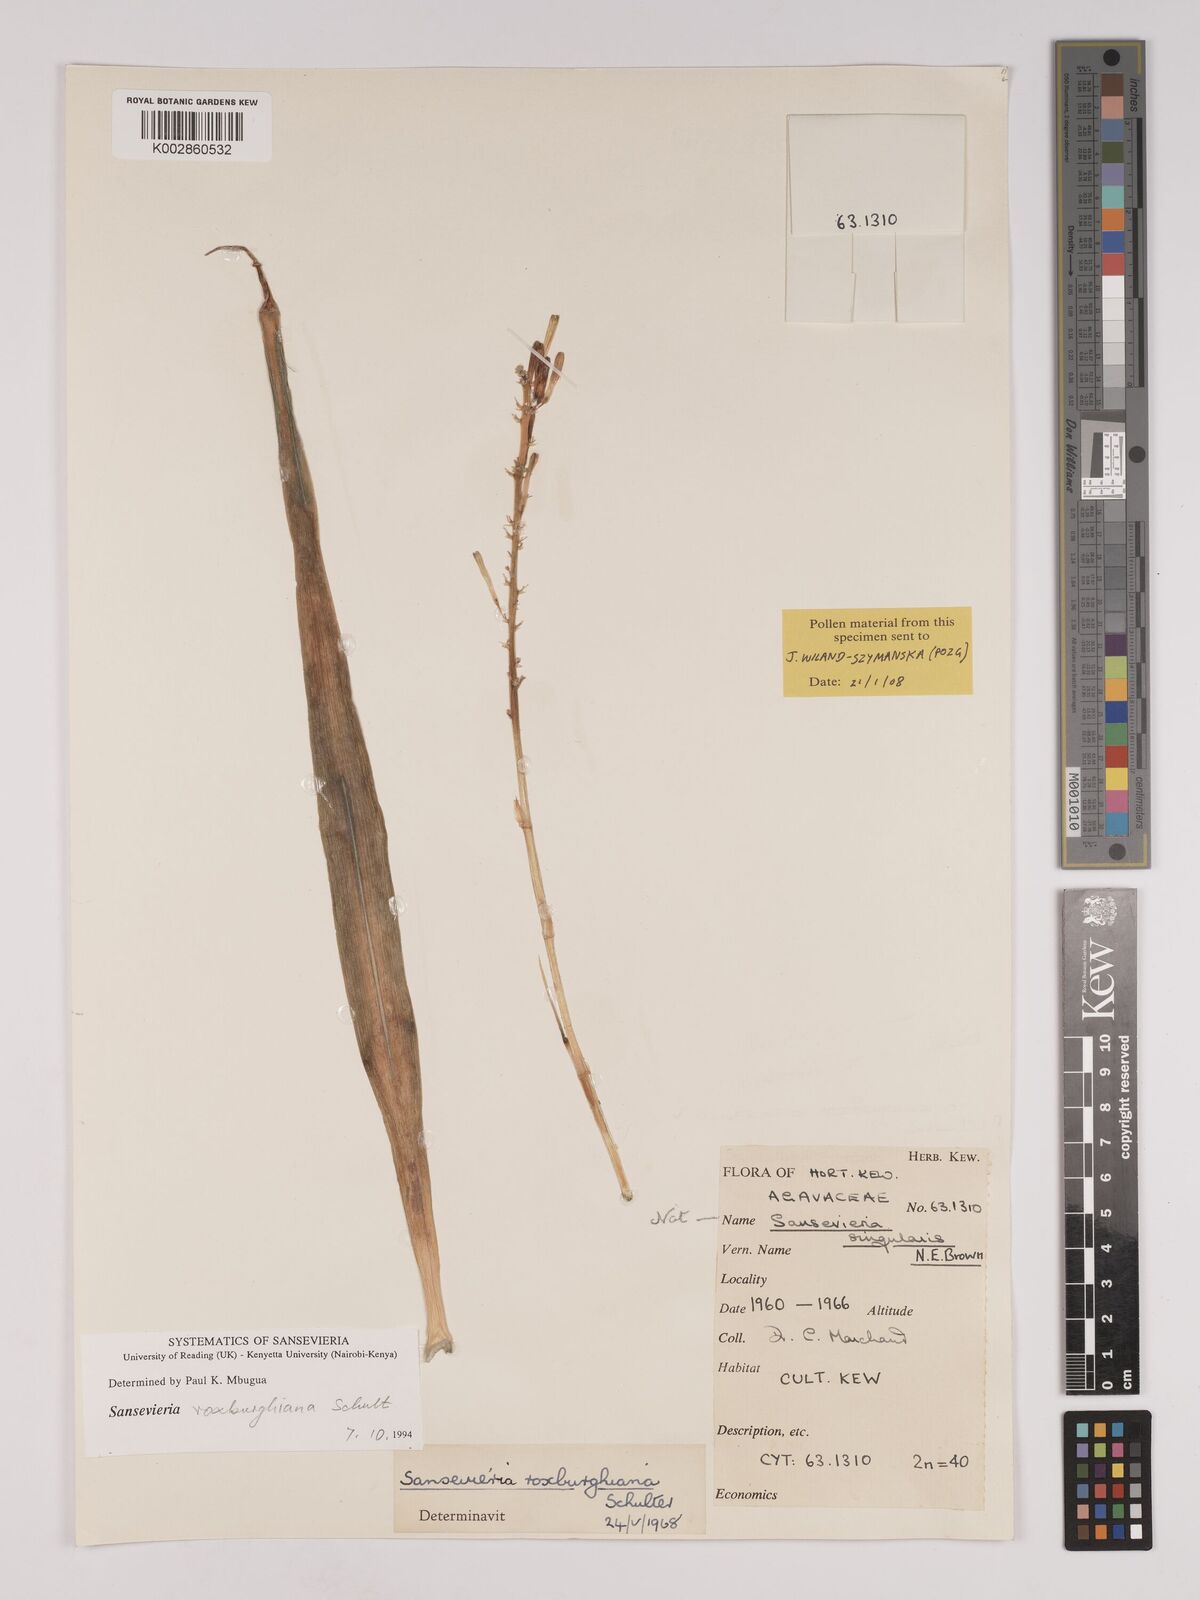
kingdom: Plantae
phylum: Tracheophyta
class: Liliopsida
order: Asparagales
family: Asparagaceae
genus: Dracaena
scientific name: Dracaena roxburghiana
